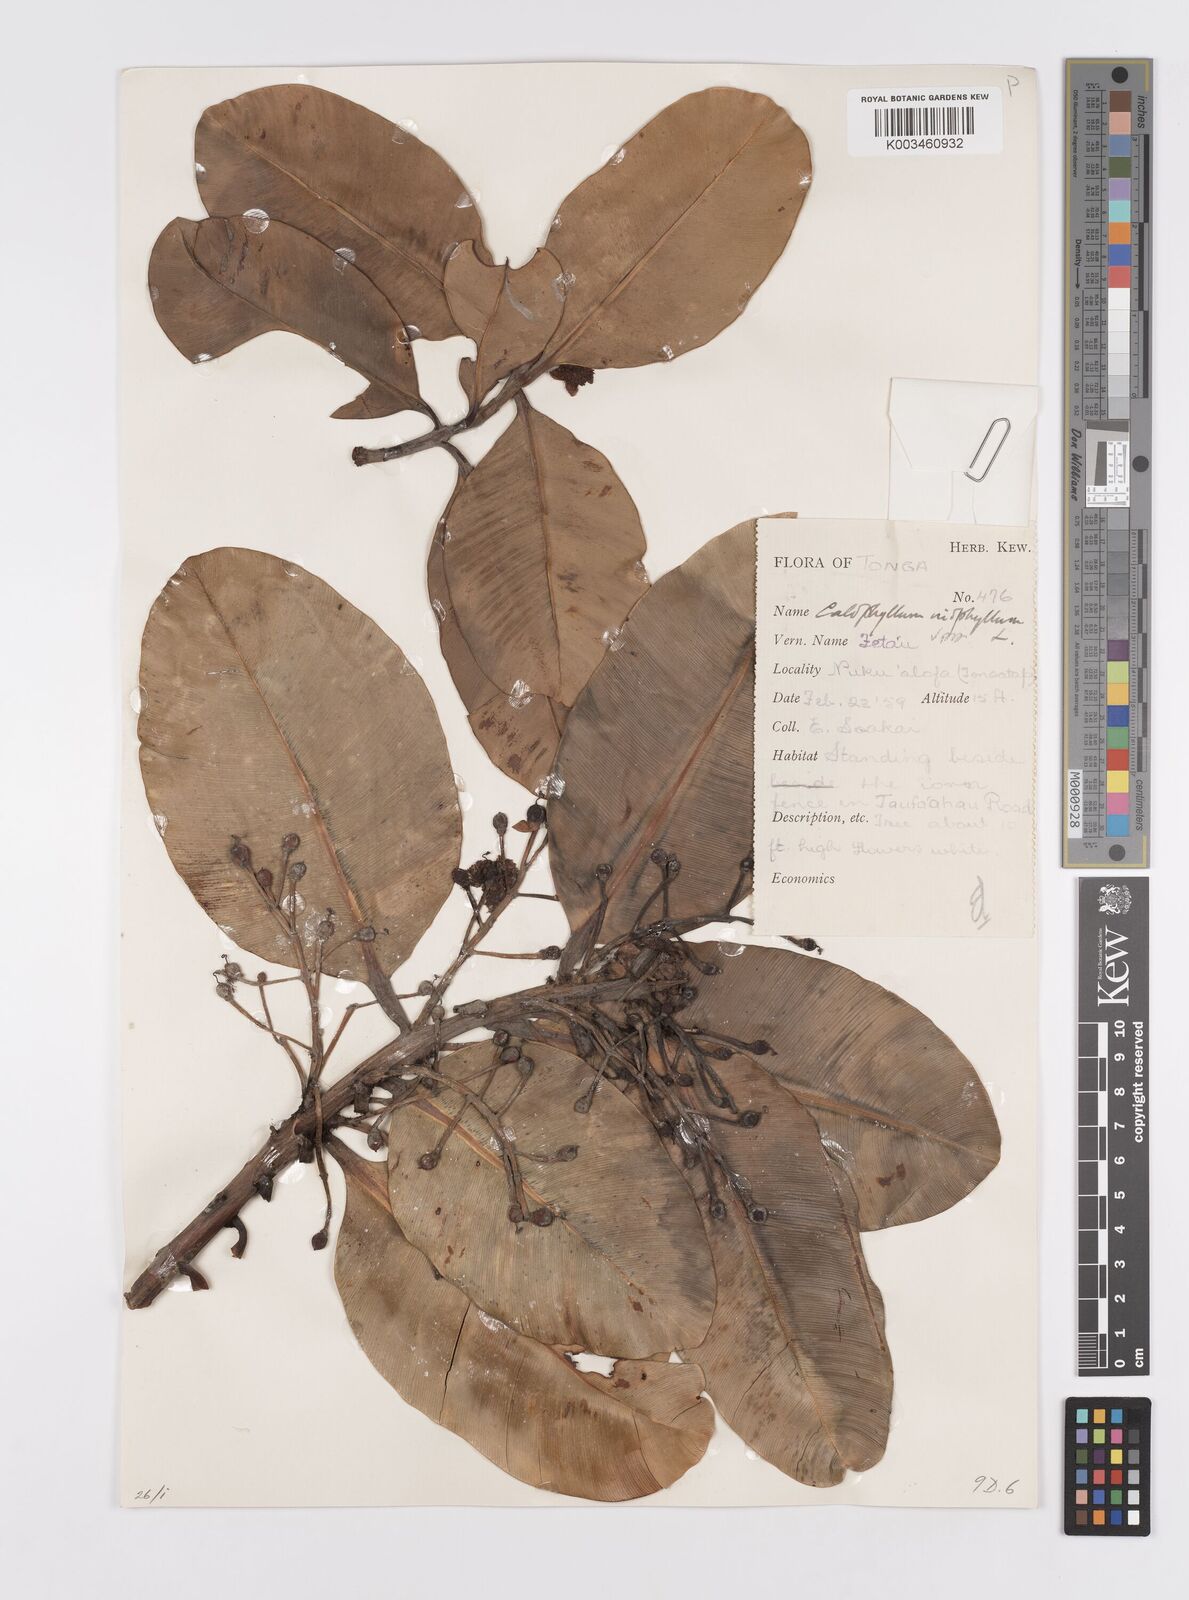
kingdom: Plantae
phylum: Tracheophyta
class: Magnoliopsida
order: Malpighiales
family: Calophyllaceae
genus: Calophyllum
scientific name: Calophyllum inophyllum
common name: Alexandrian laurel
